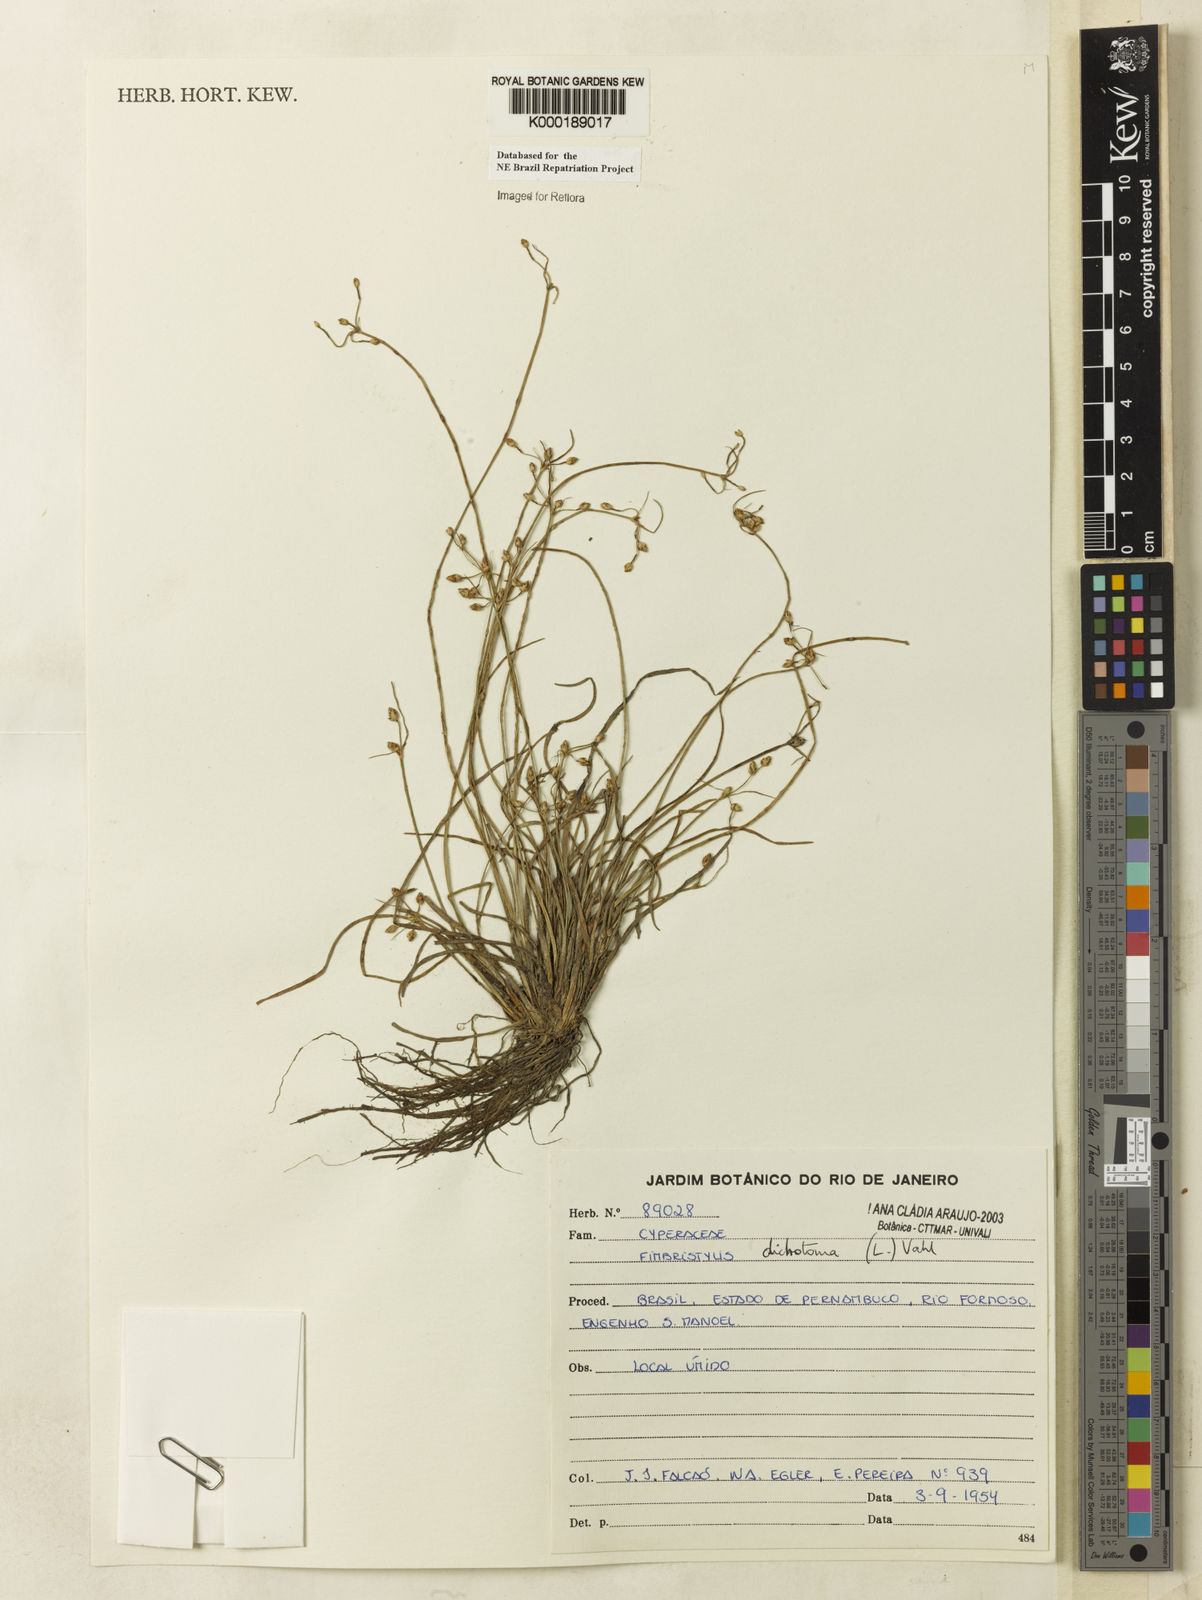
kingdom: Plantae
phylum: Tracheophyta
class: Liliopsida
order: Poales
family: Cyperaceae
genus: Fimbristylis
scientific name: Fimbristylis dichotoma
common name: Forked fimbry
